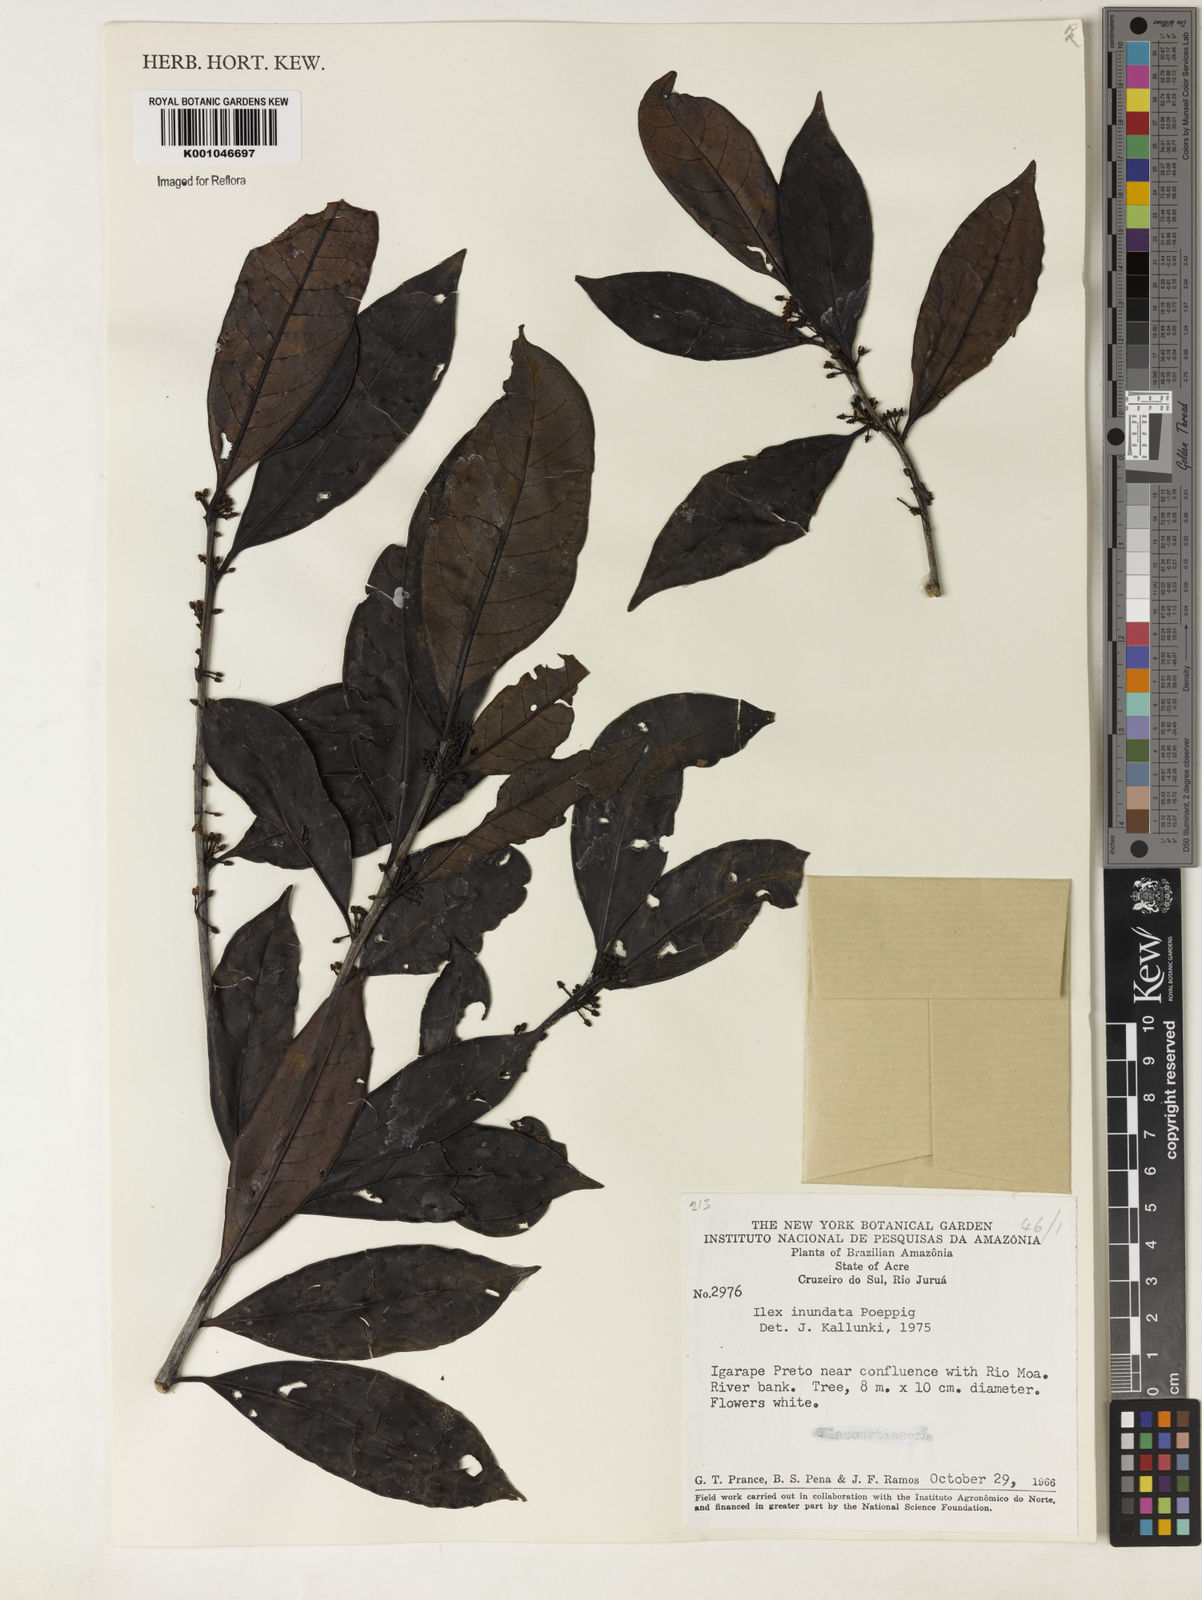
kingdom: Plantae
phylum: Tracheophyta
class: Magnoliopsida
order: Aquifoliales
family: Aquifoliaceae
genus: Ilex
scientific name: Ilex inundata
